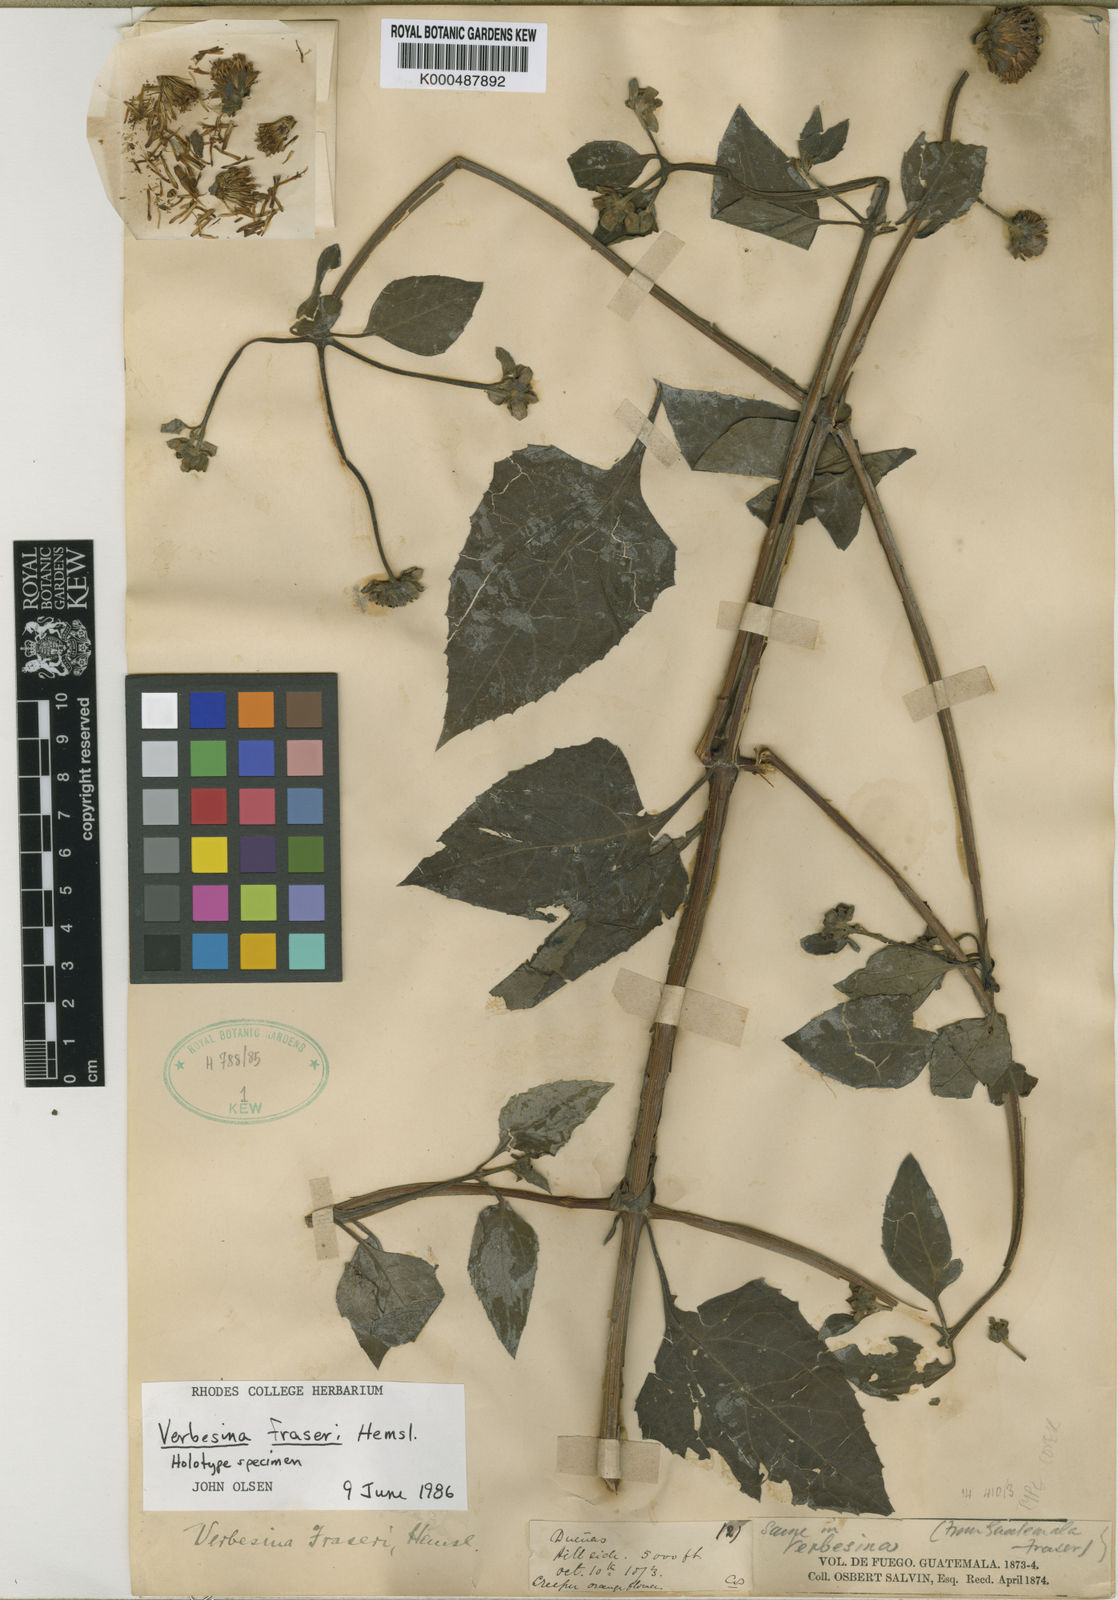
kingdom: Plantae
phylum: Tracheophyta
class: Magnoliopsida
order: Asterales
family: Asteraceae
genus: Verbesina
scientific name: Verbesina fraseri
